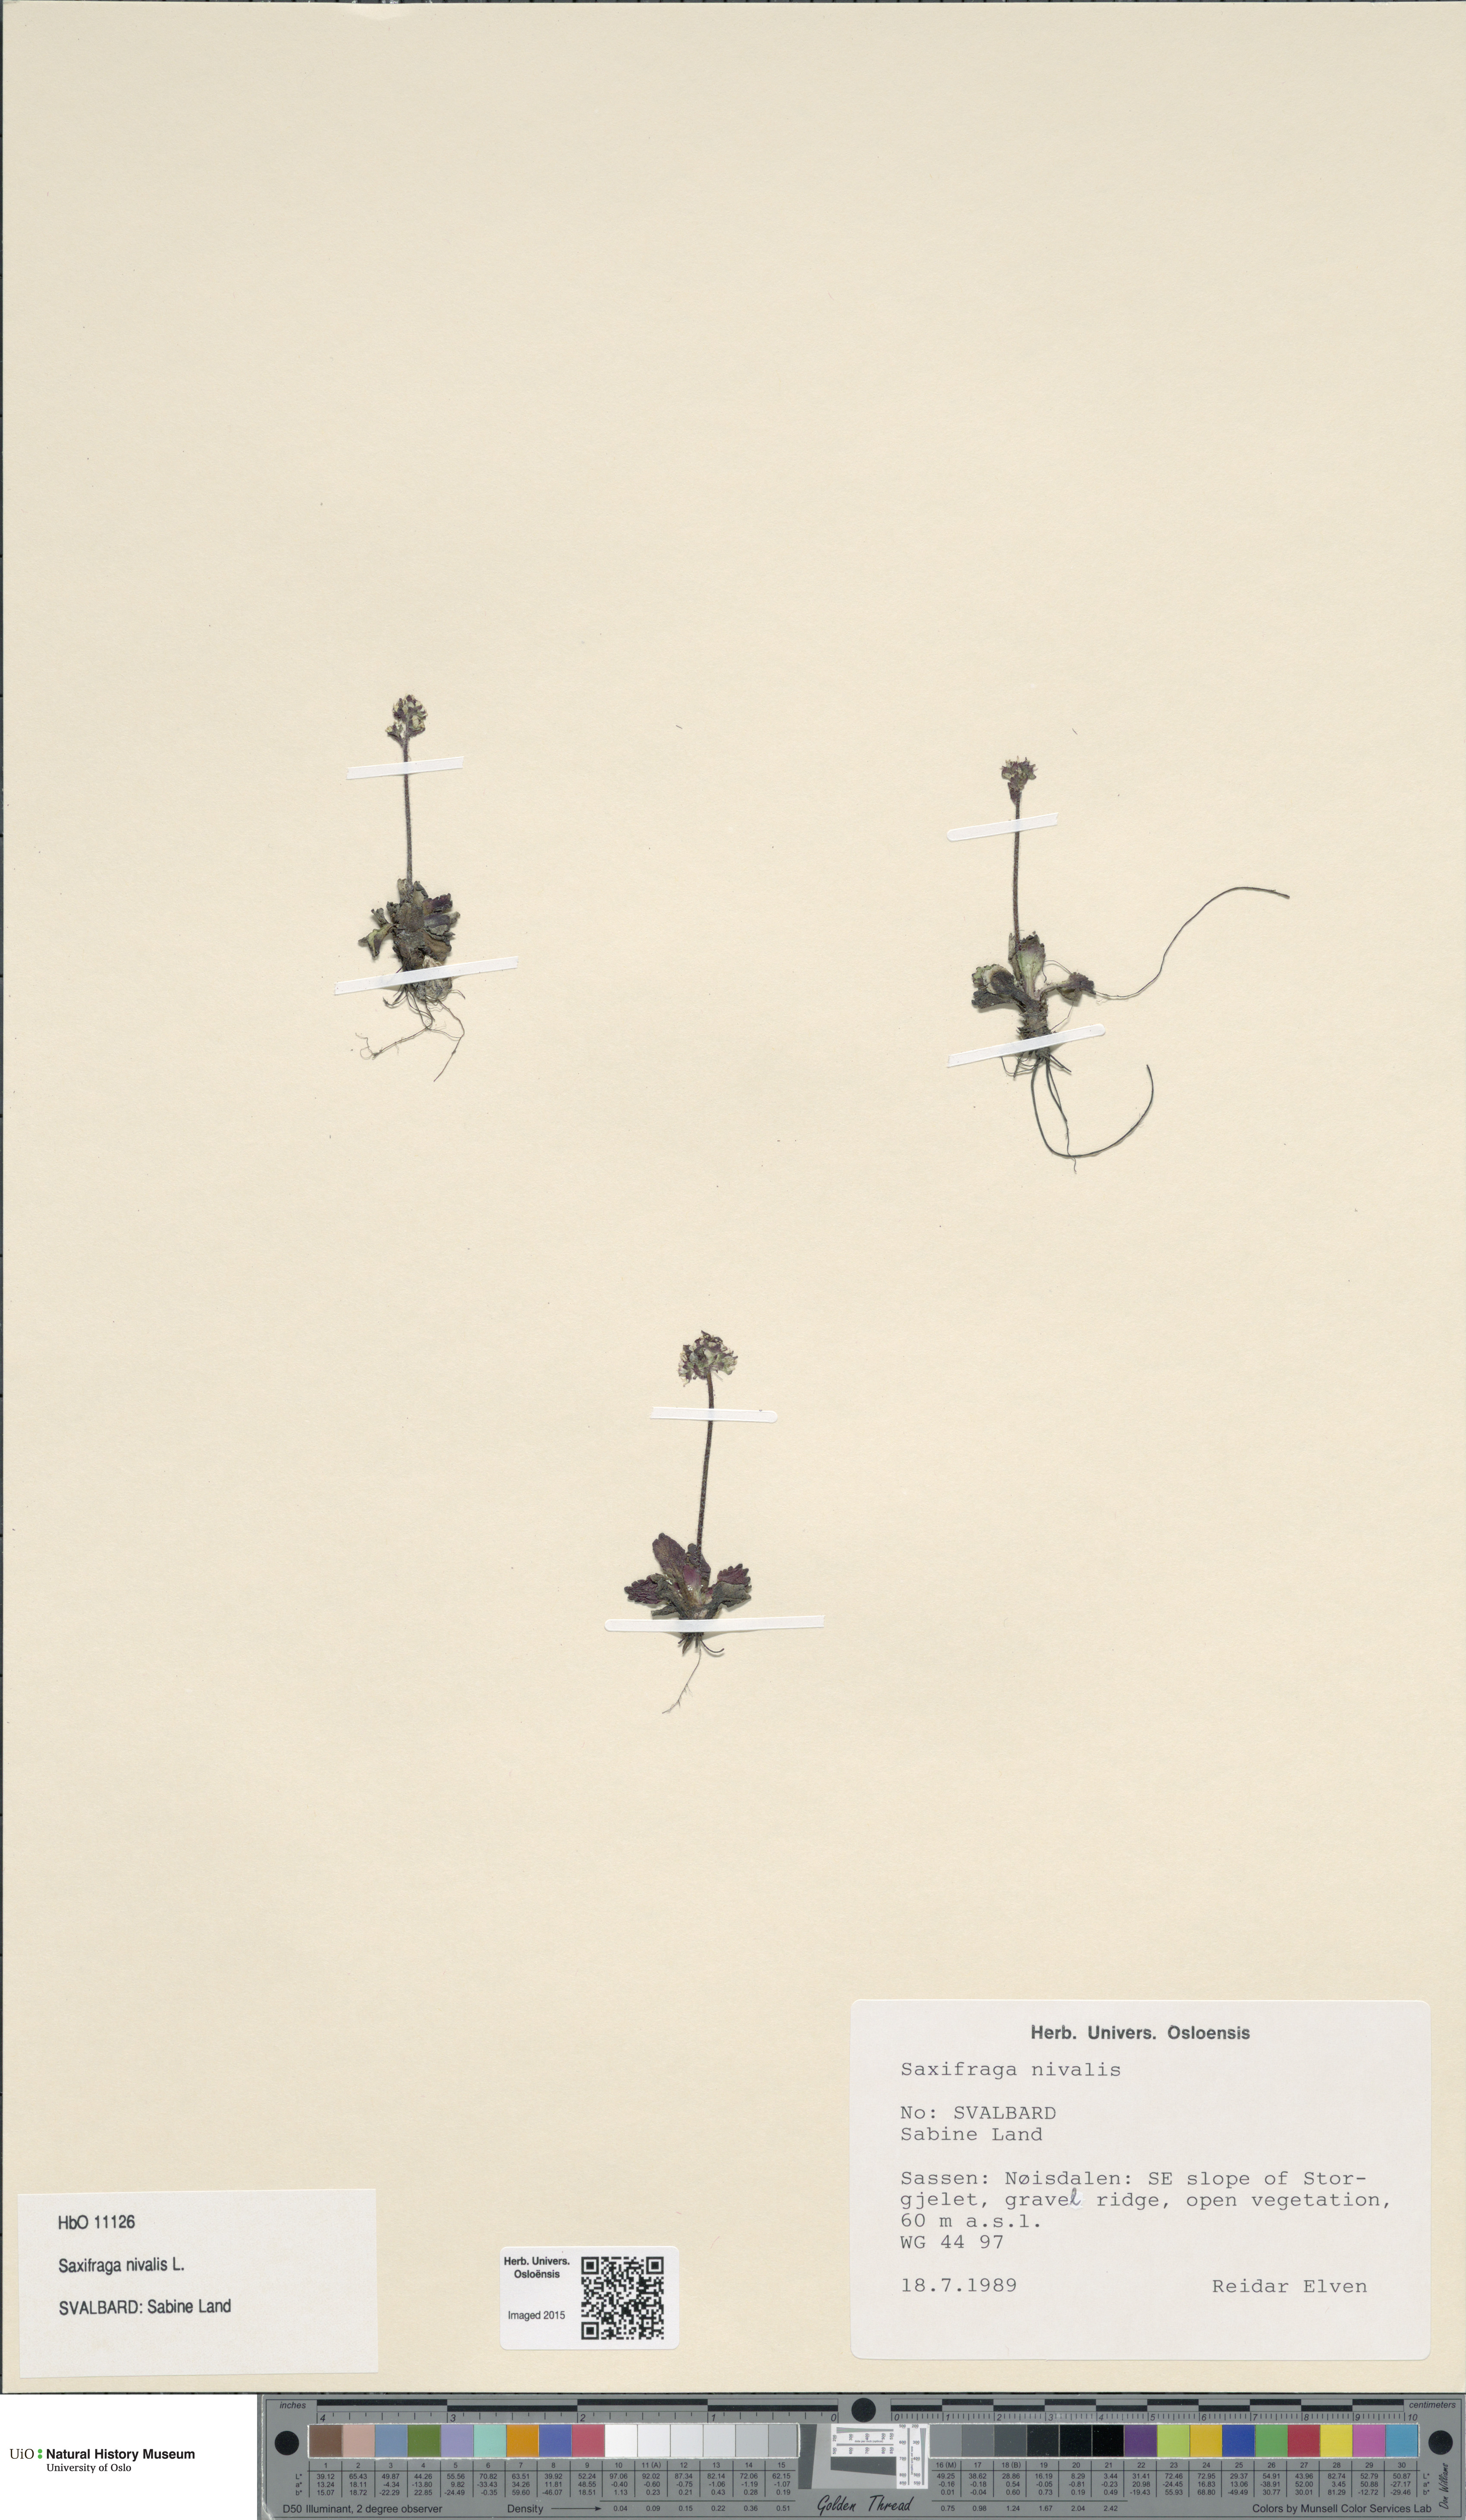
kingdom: Plantae
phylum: Tracheophyta
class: Magnoliopsida
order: Saxifragales
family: Saxifragaceae
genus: Micranthes
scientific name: Micranthes nivalis
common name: Alpine saxifrage
